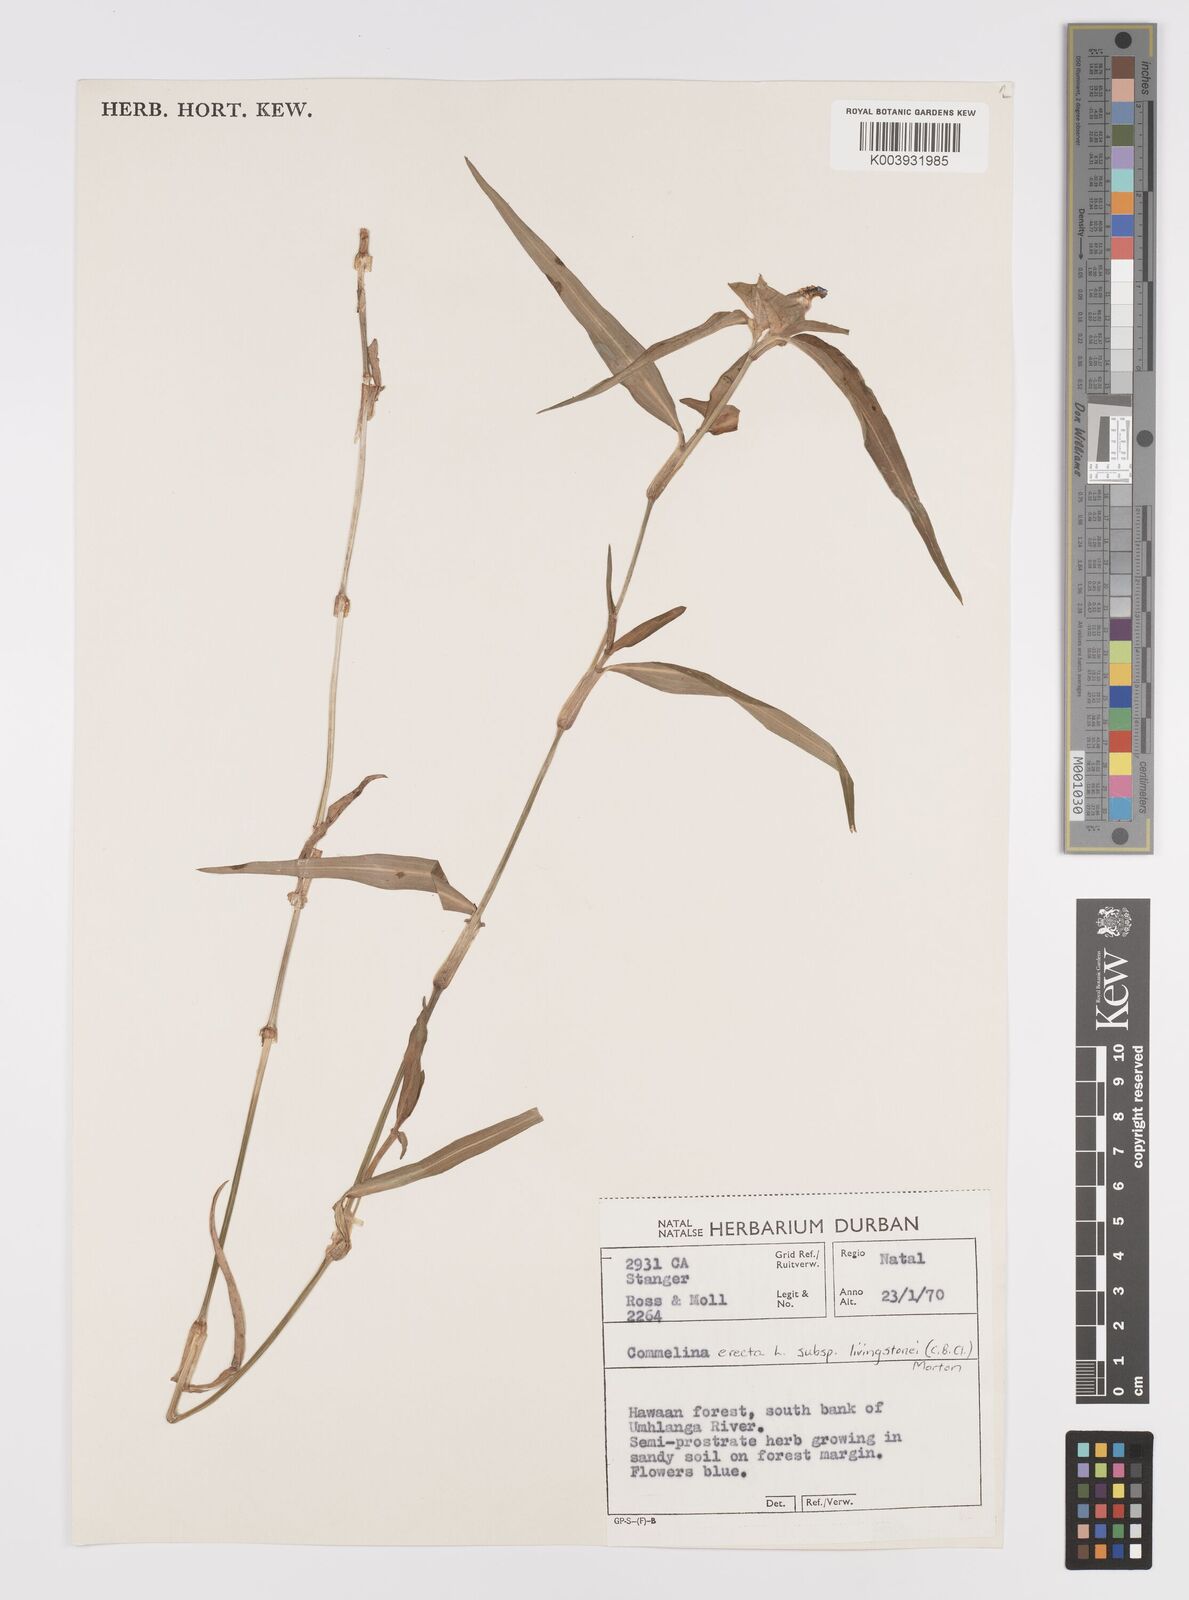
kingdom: Plantae
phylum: Tracheophyta
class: Liliopsida
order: Commelinales
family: Commelinaceae
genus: Commelina
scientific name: Commelina erecta
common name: Blousel blommetjie
